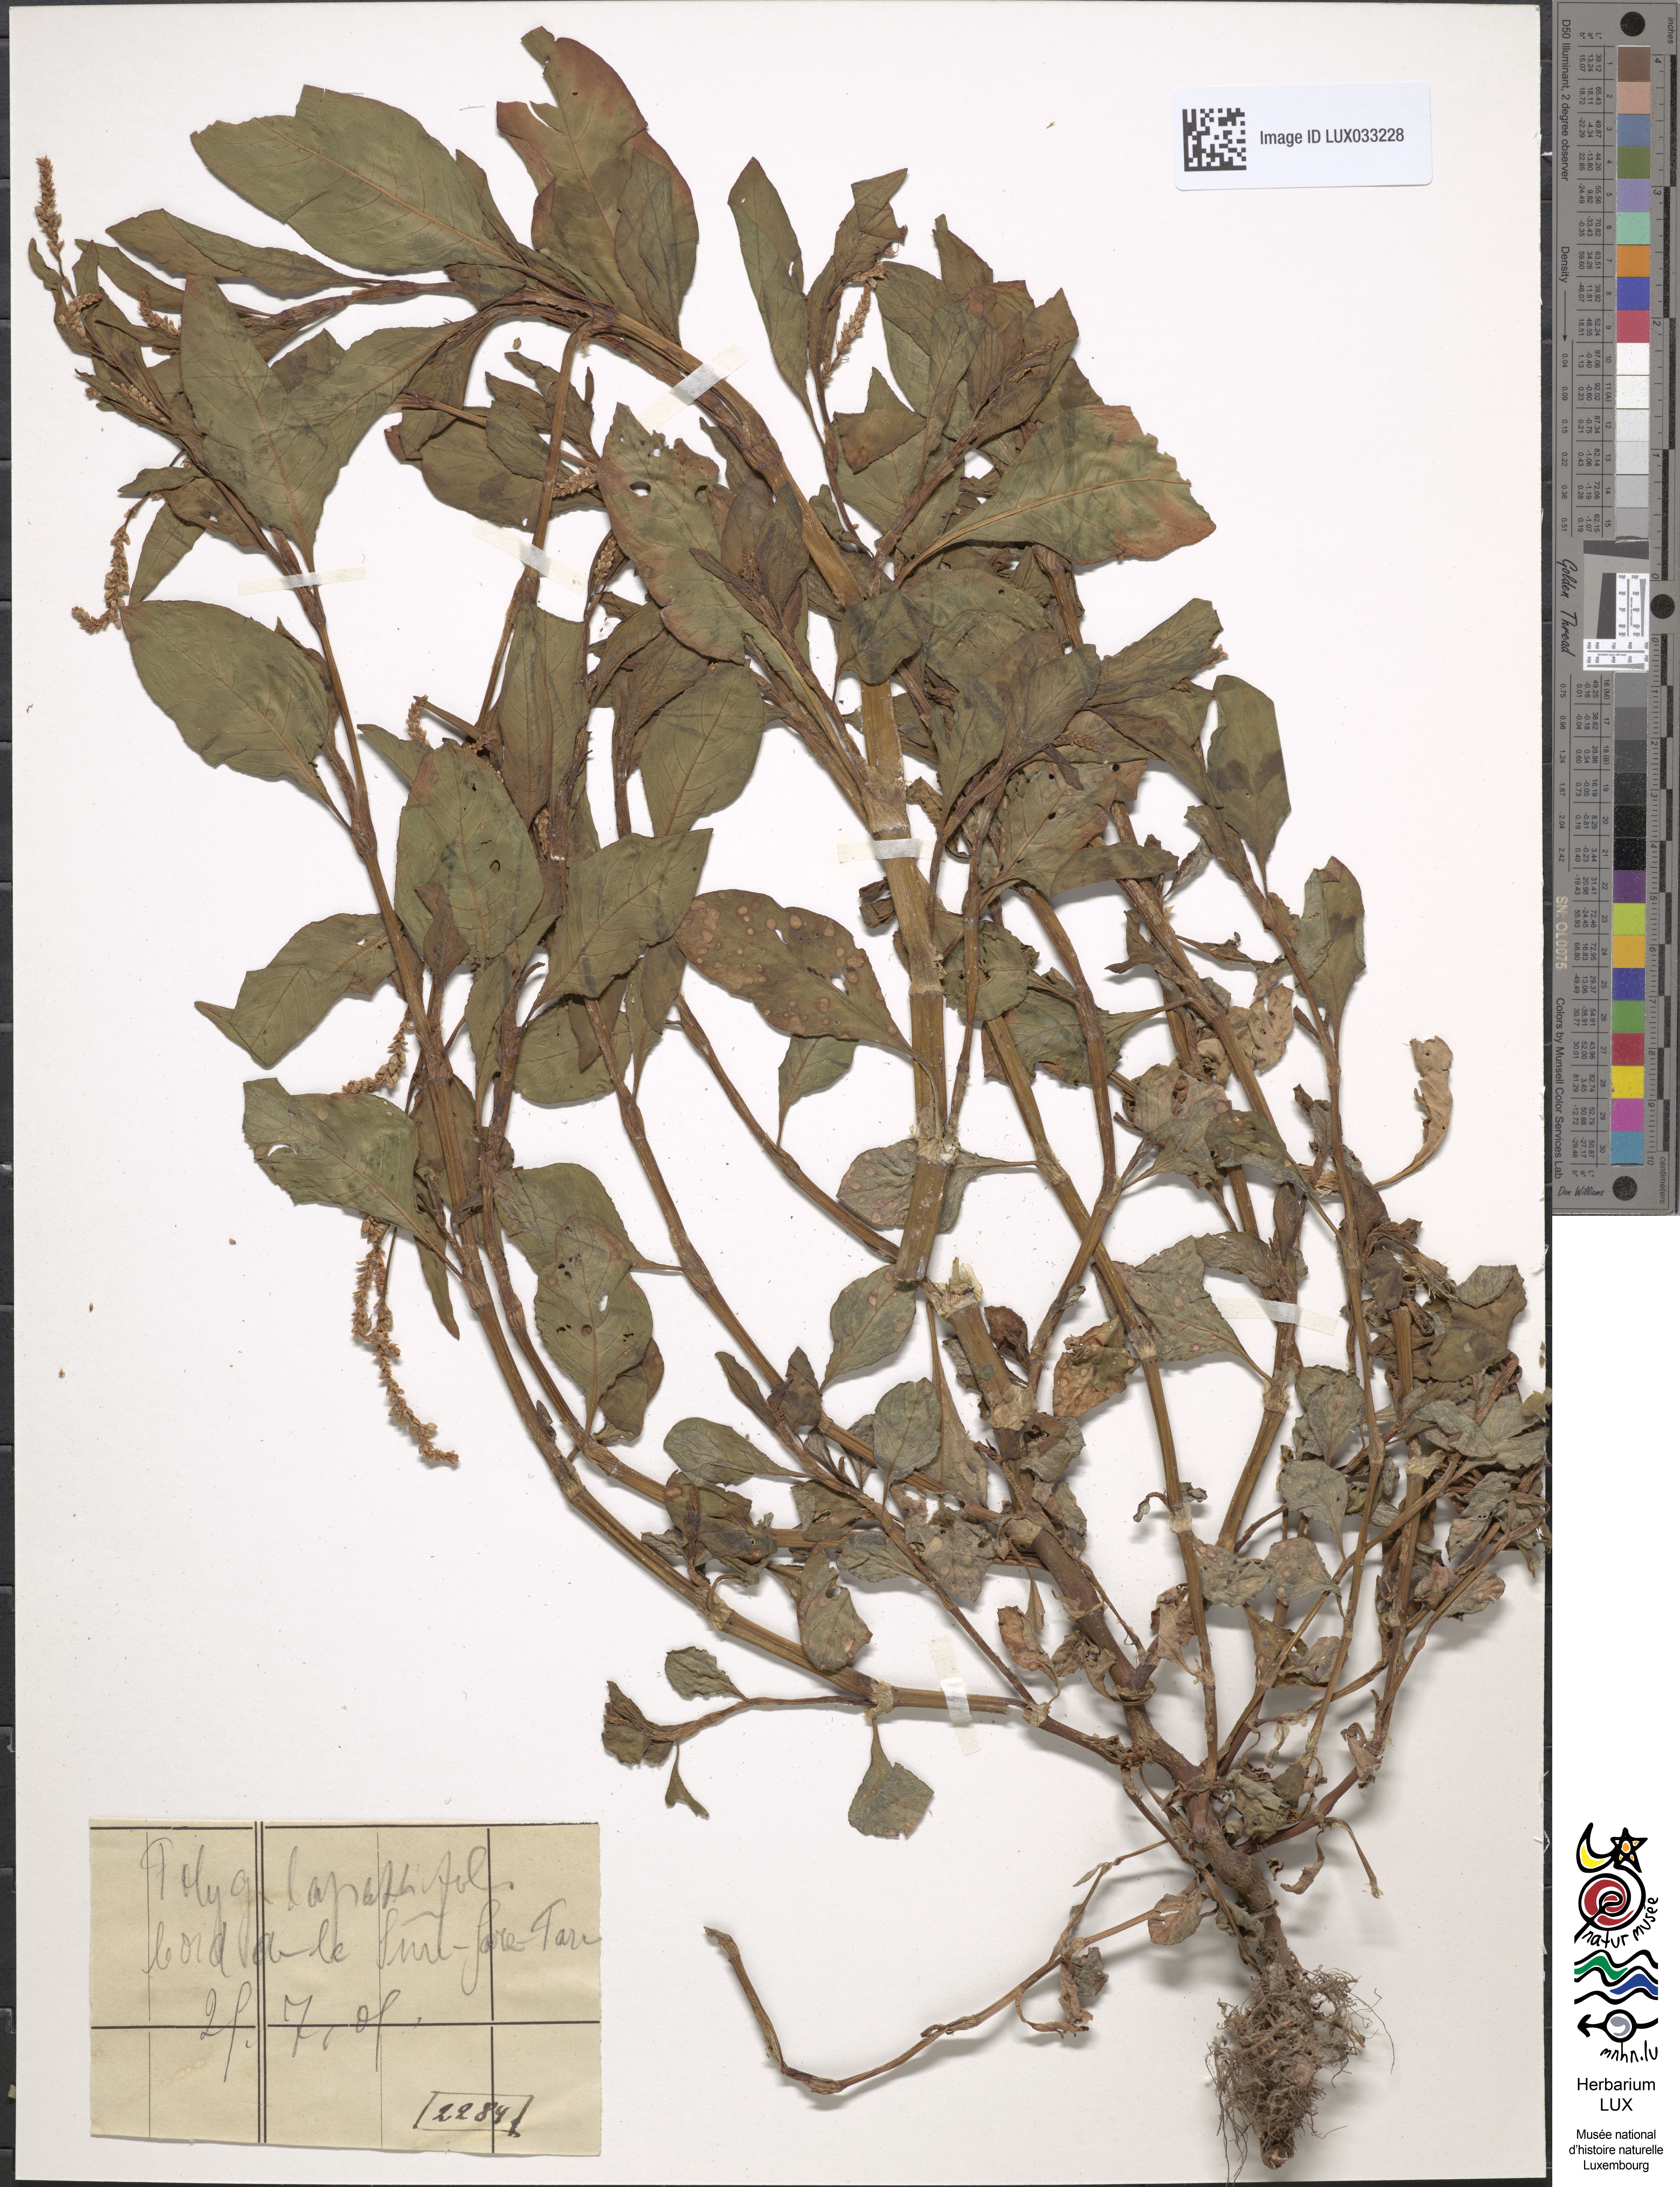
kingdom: Plantae
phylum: Tracheophyta
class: Magnoliopsida
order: Caryophyllales
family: Polygonaceae
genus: Persicaria
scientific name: Persicaria lapathifolia
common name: Curlytop knotweed
